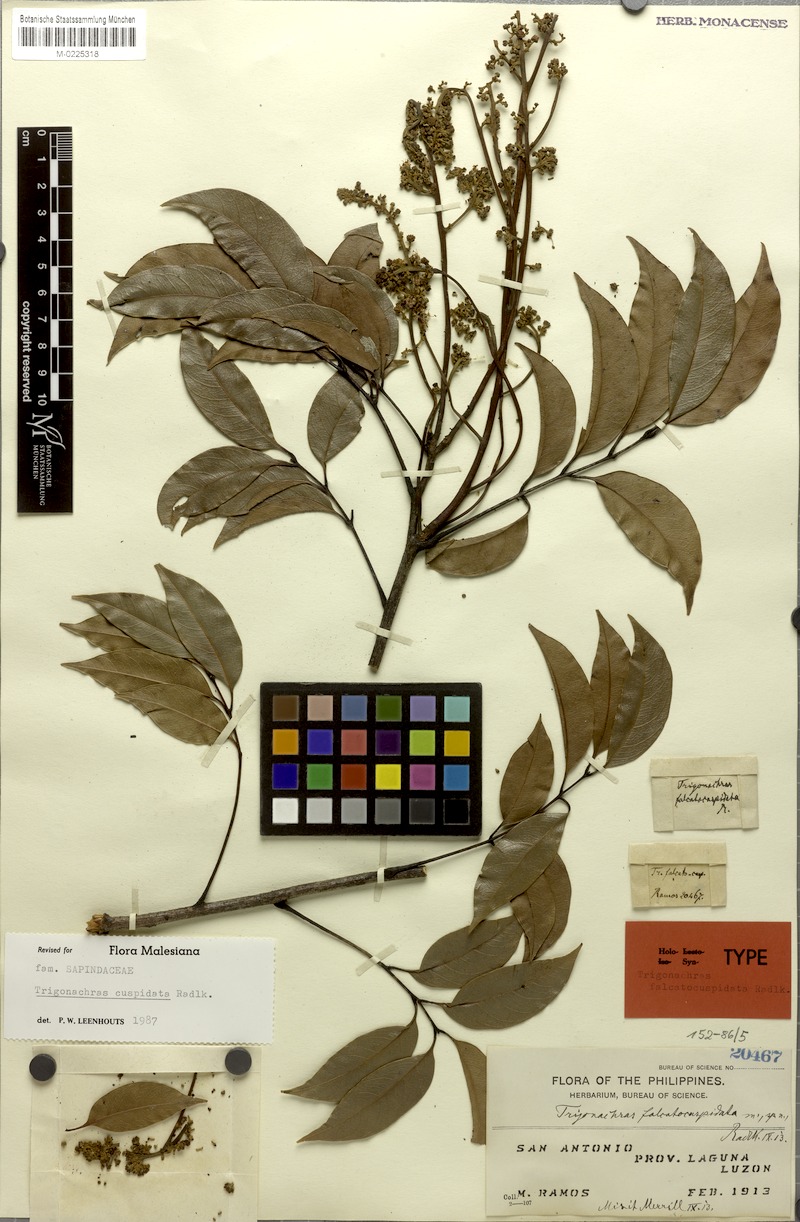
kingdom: Plantae
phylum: Tracheophyta
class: Magnoliopsida
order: Sapindales
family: Sapindaceae
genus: Trigonachras
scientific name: Trigonachras cuspidata
